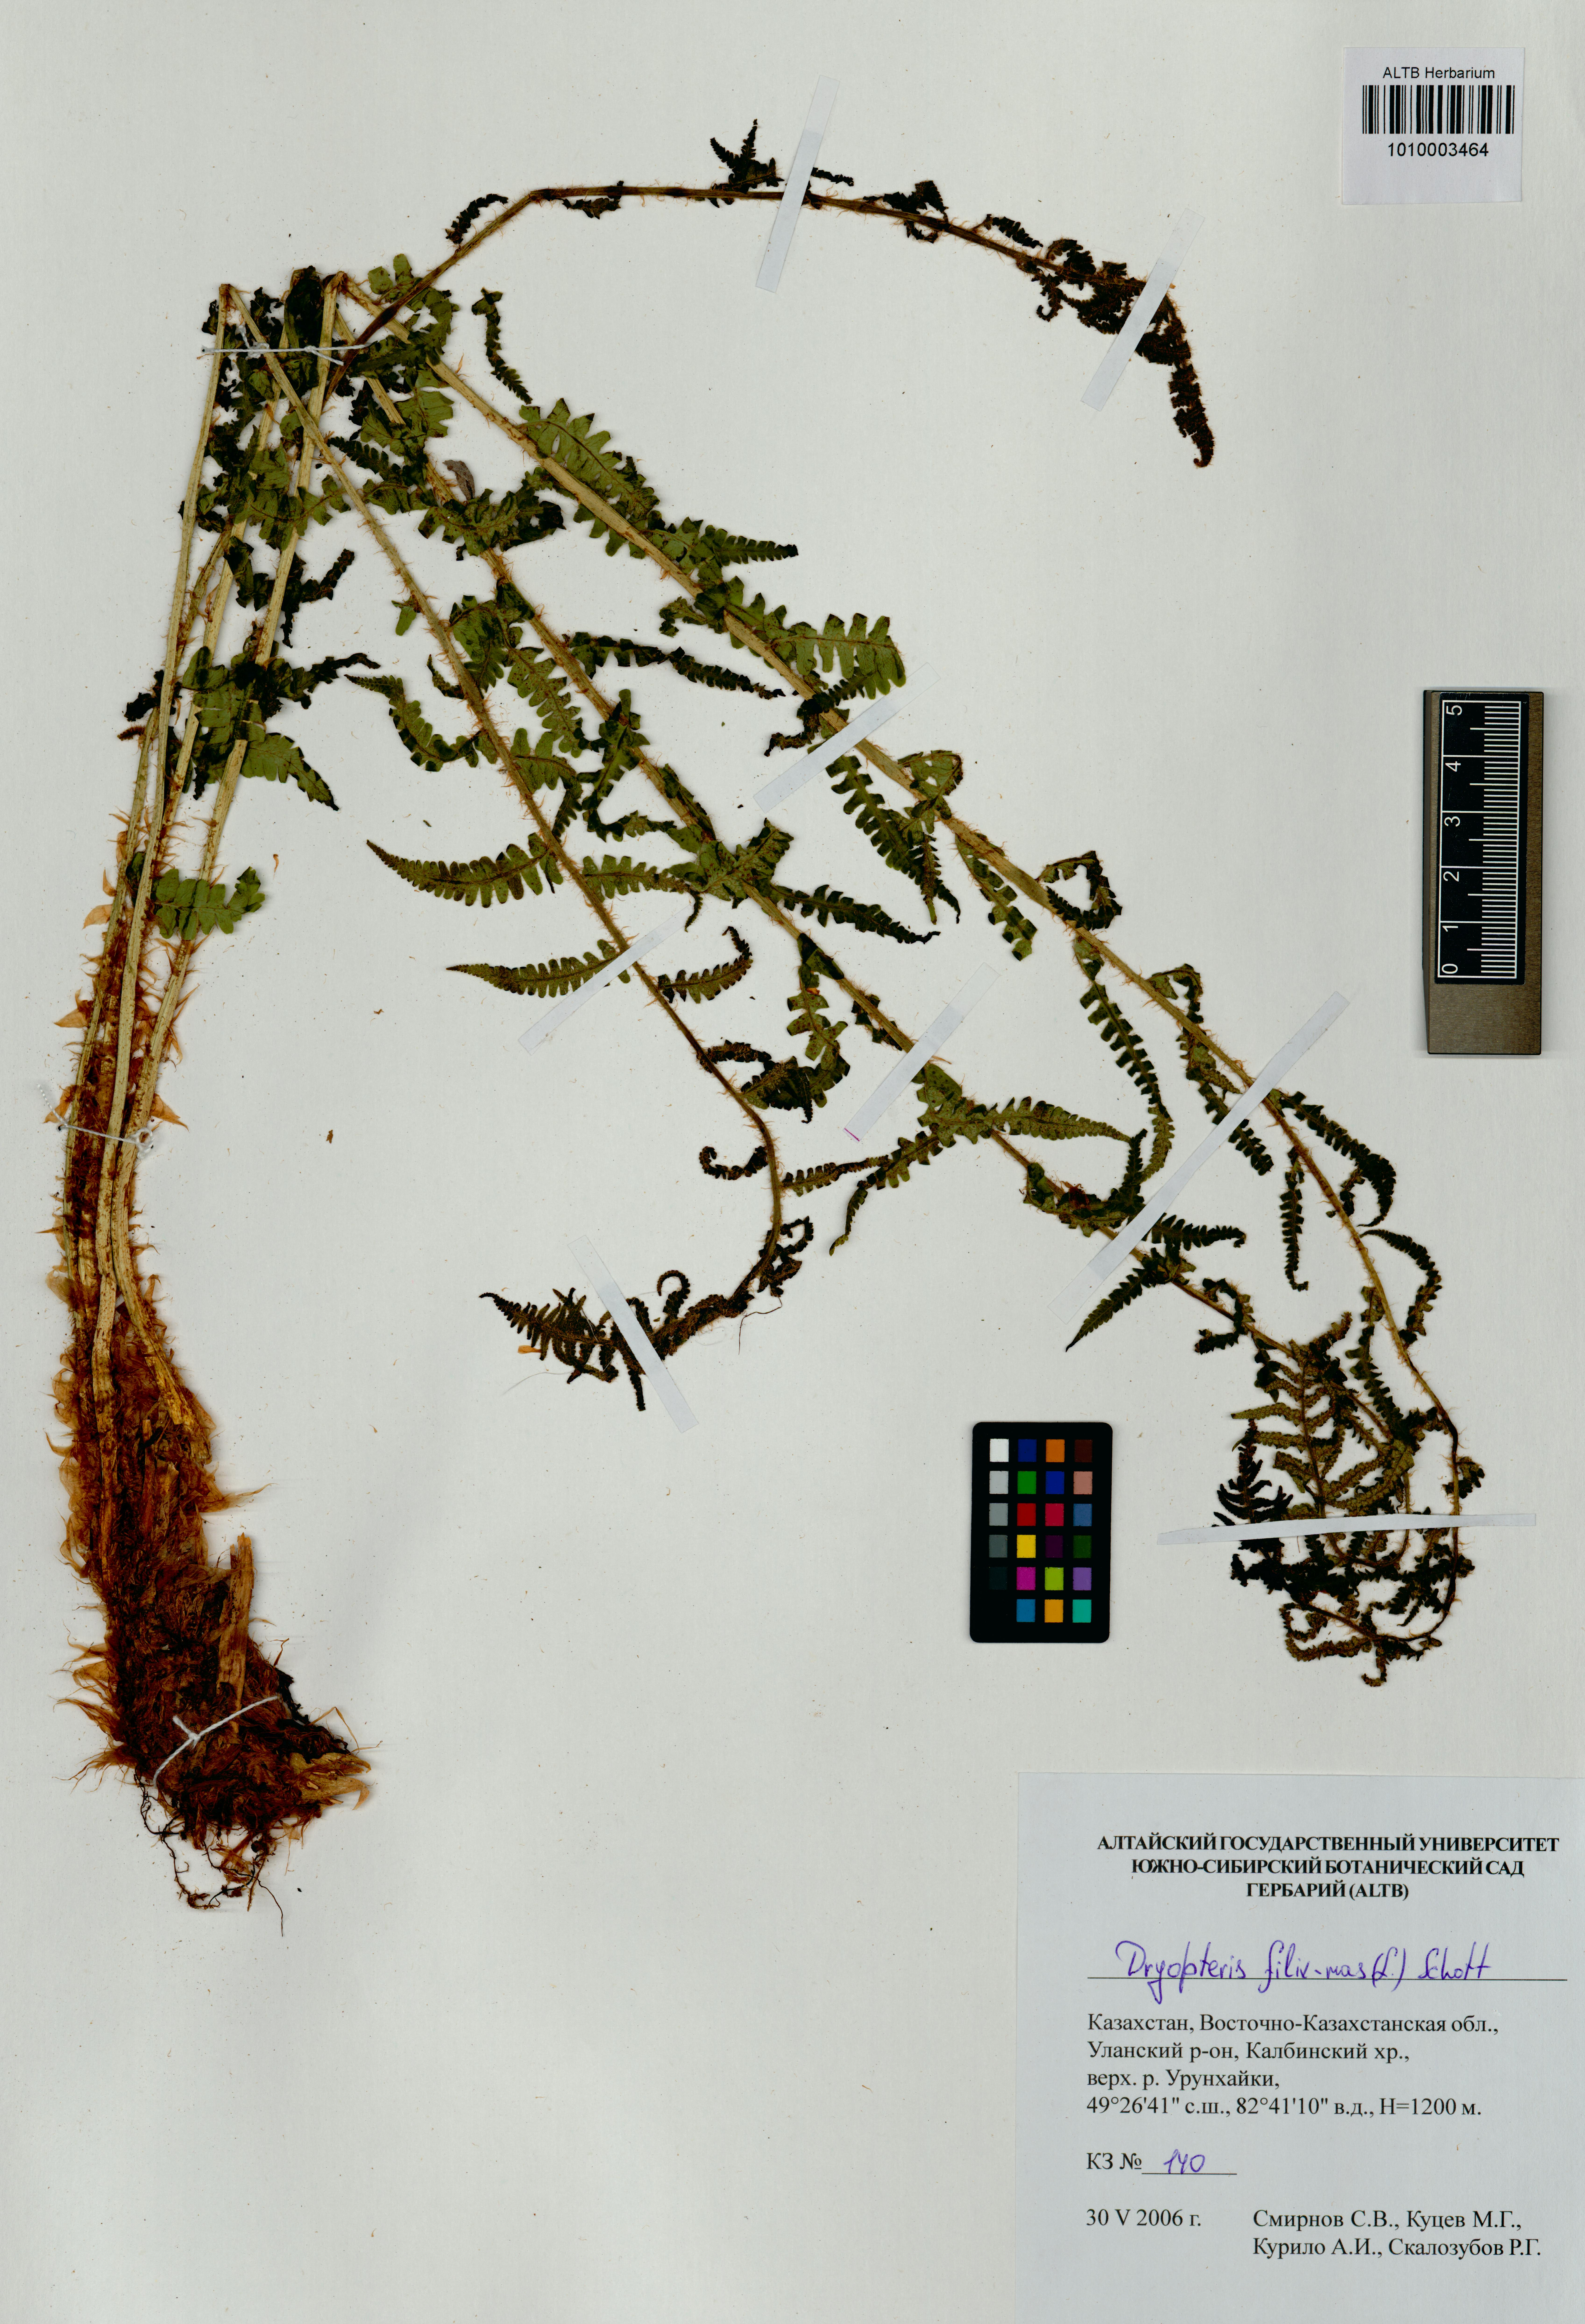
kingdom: Plantae
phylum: Tracheophyta
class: Polypodiopsida
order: Polypodiales
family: Dryopteridaceae
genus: Dryopteris
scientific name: Dryopteris filix-mas
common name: Male fern
